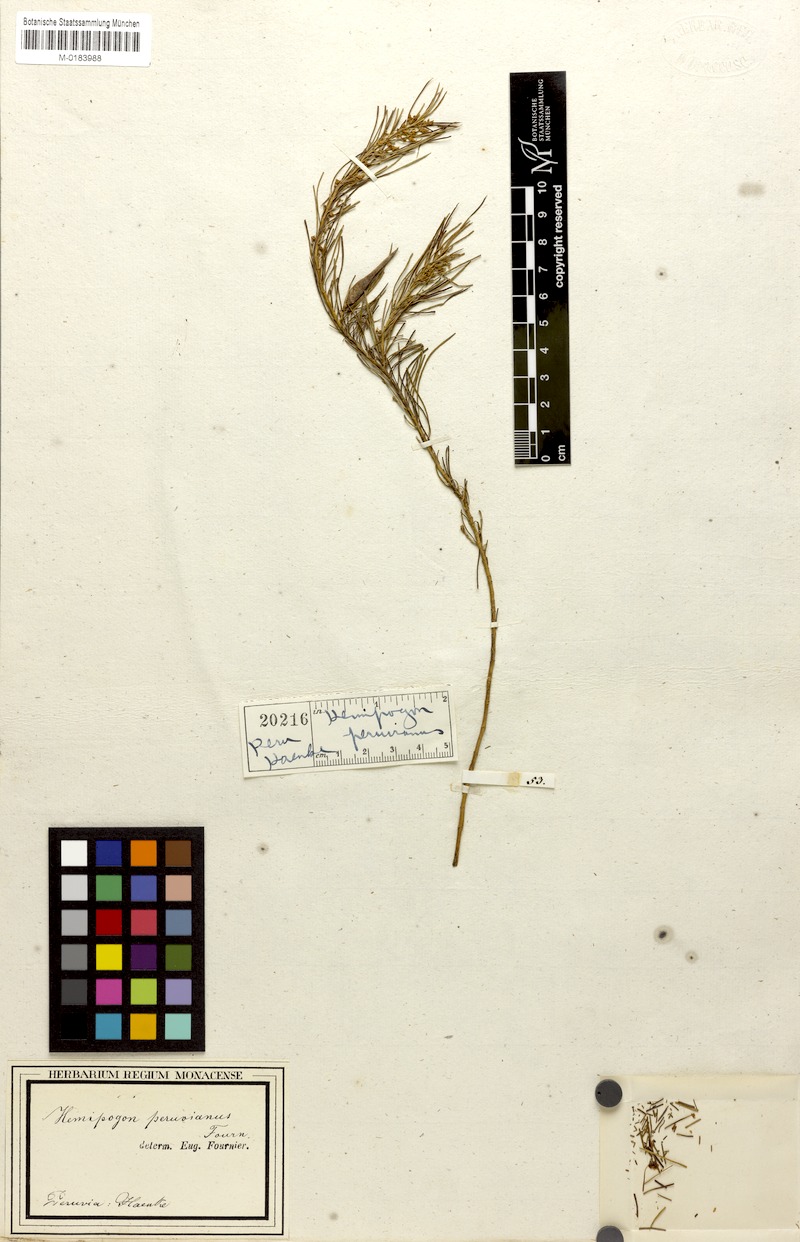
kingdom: Plantae
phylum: Tracheophyta
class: Magnoliopsida
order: Gentianales
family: Apocynaceae
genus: Hemipogon
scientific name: Hemipogon peruvianus
